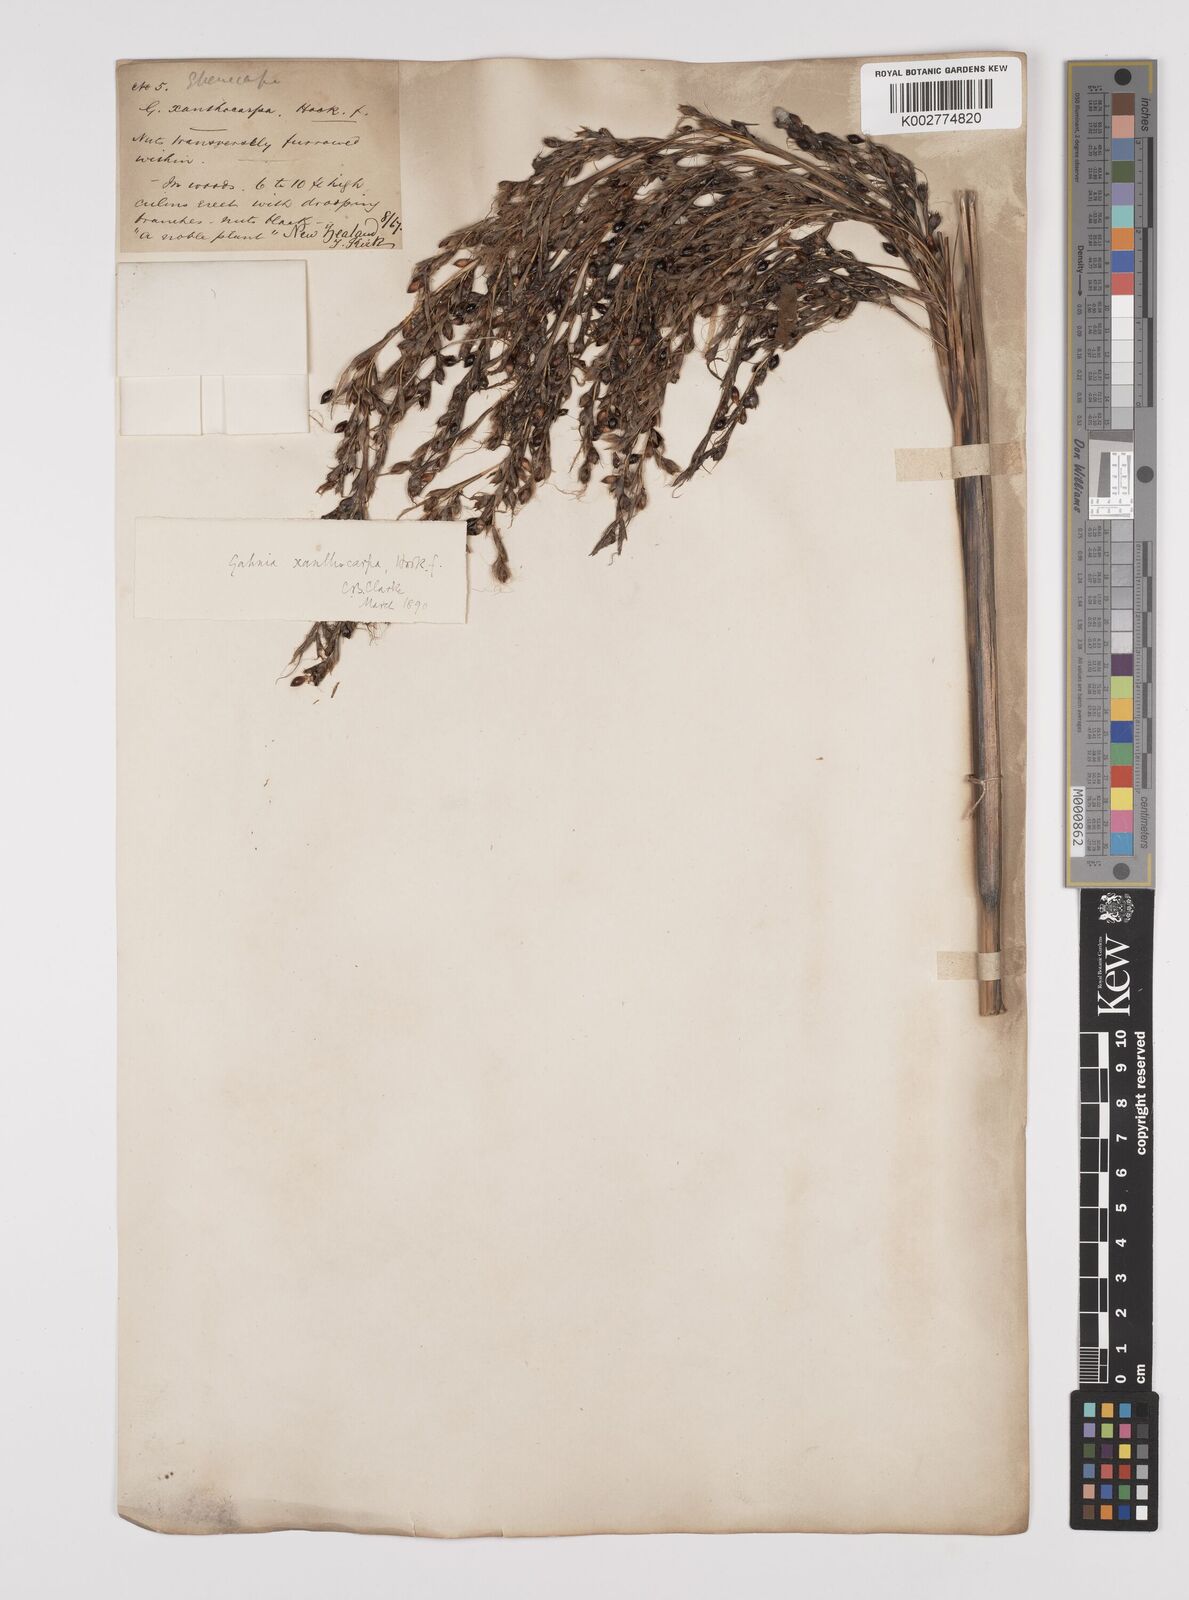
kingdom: Plantae
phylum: Tracheophyta
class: Liliopsida
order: Poales
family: Cyperaceae
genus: Gahnia
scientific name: Gahnia xanthocarpa
